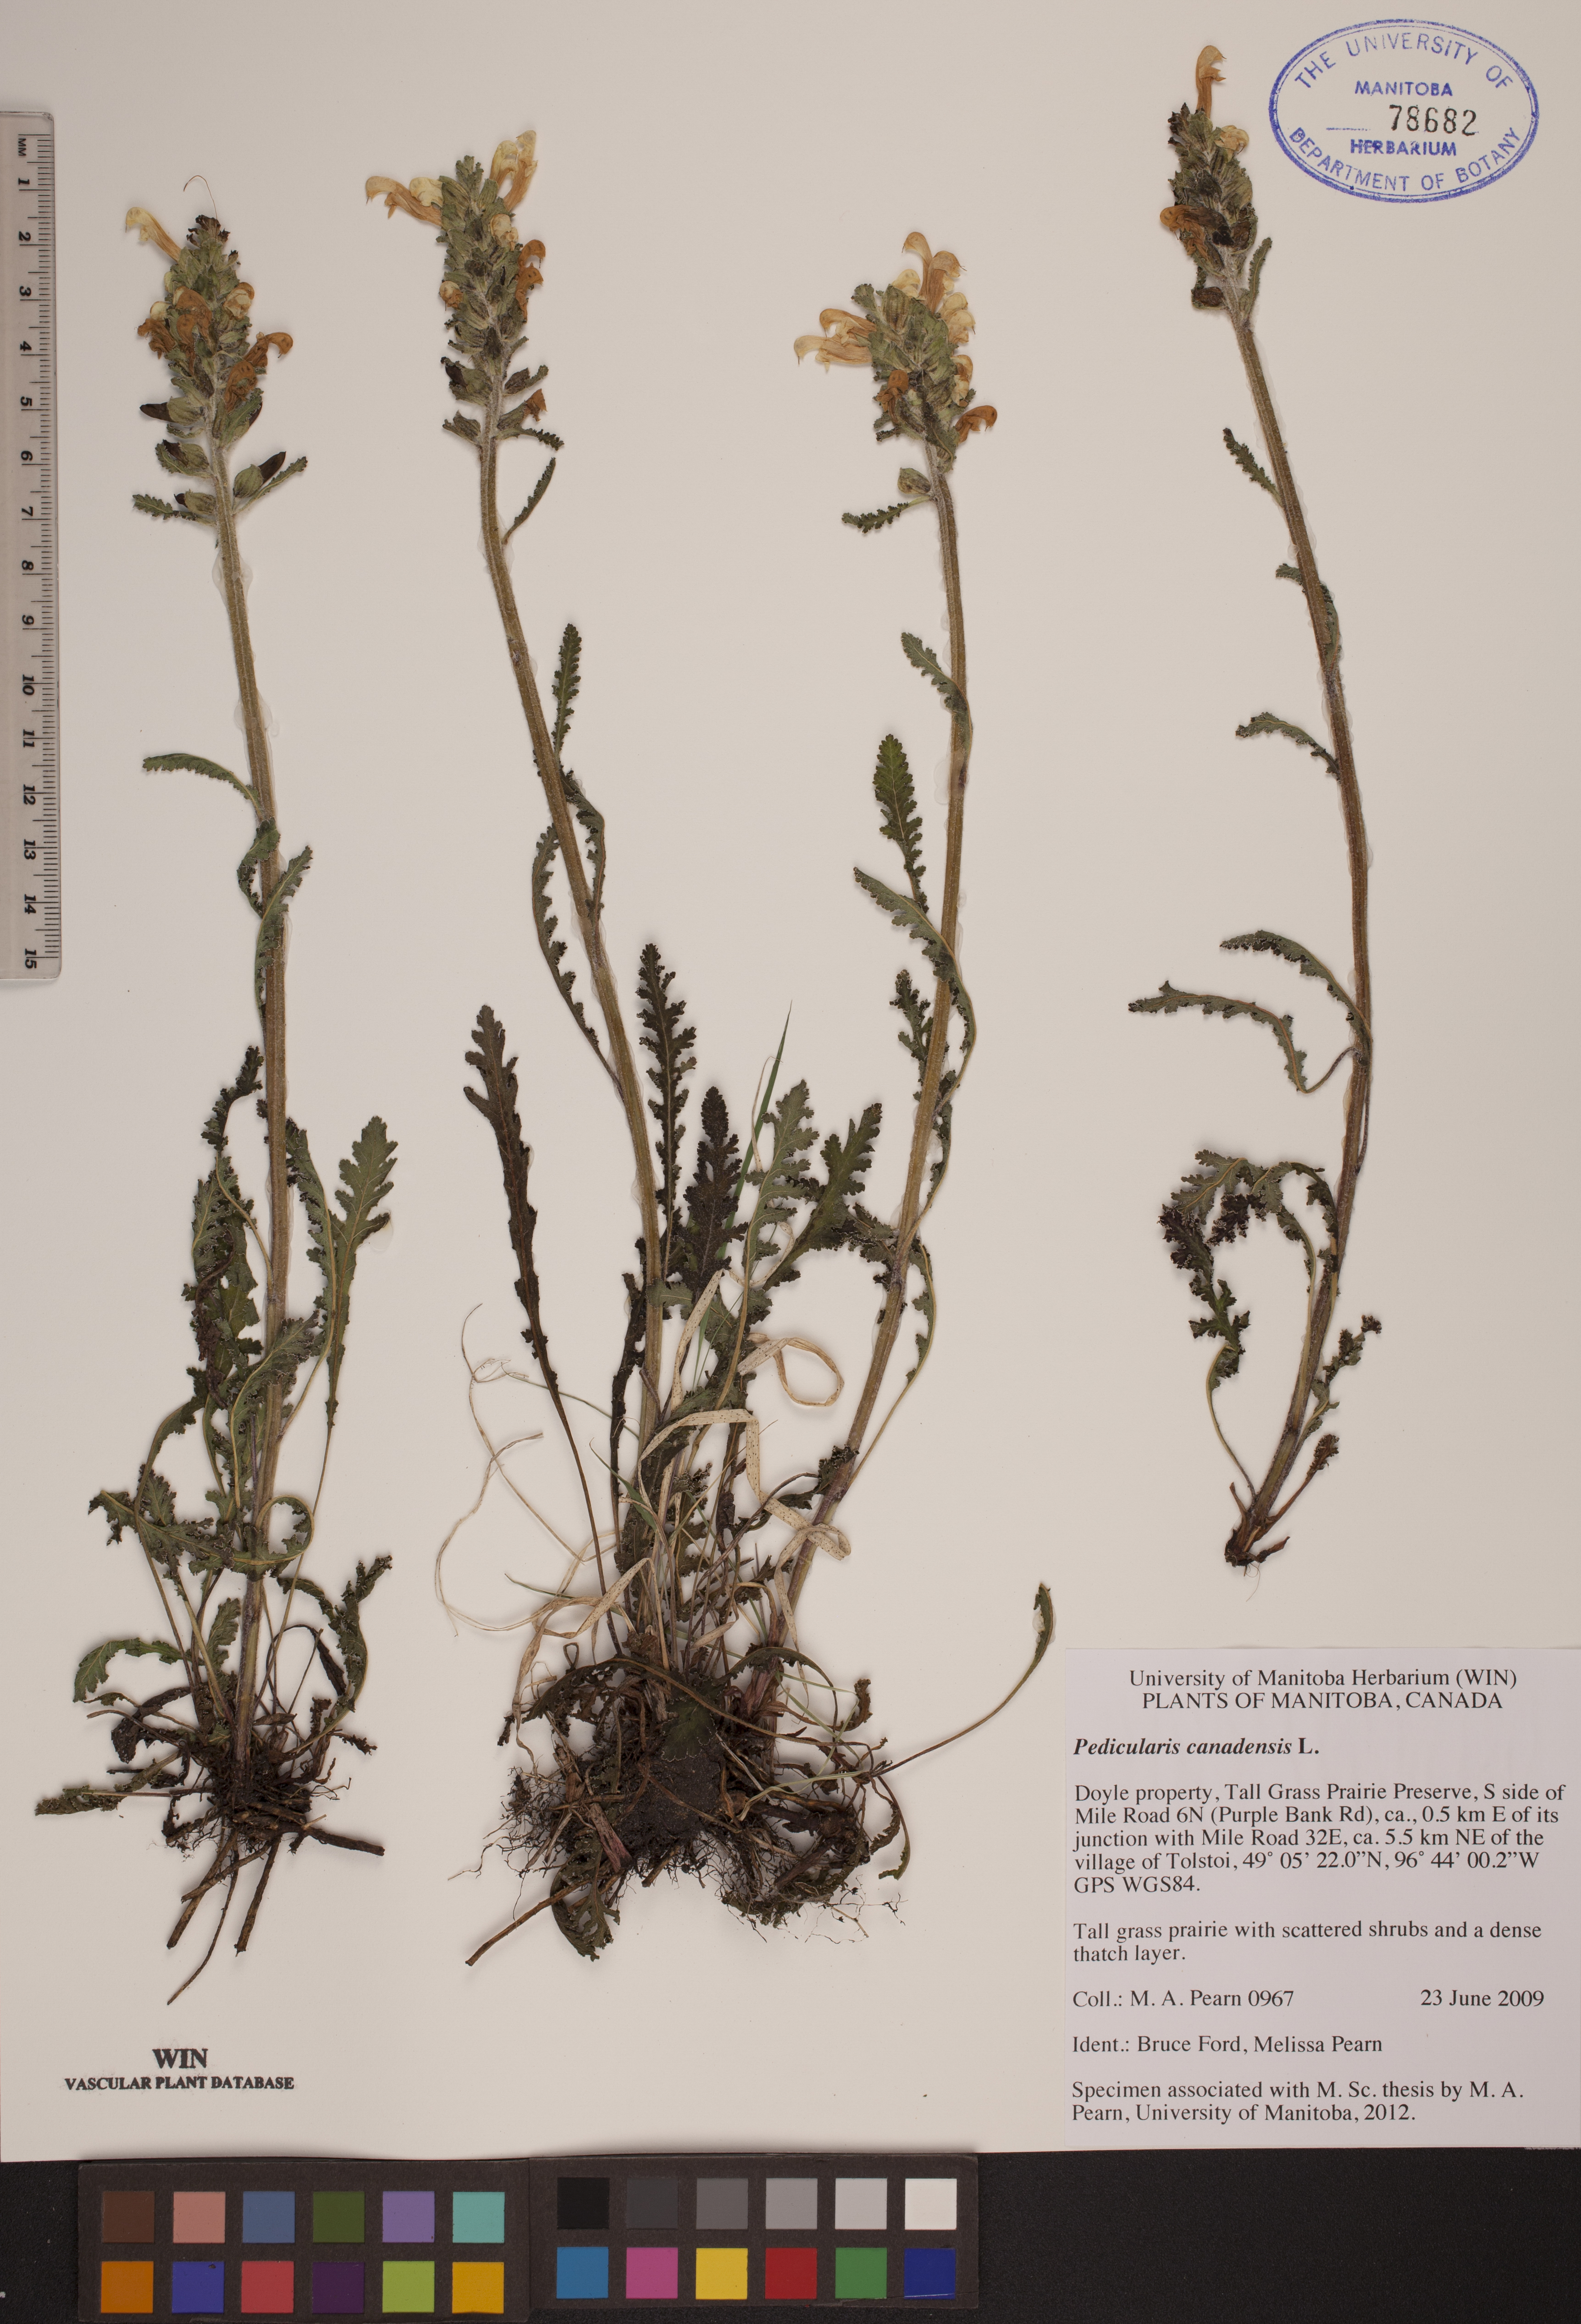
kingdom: Plantae
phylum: Tracheophyta
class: Magnoliopsida
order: Lamiales
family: Orobanchaceae
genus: Pedicularis
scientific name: Pedicularis canadensis
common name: Early lousewort
